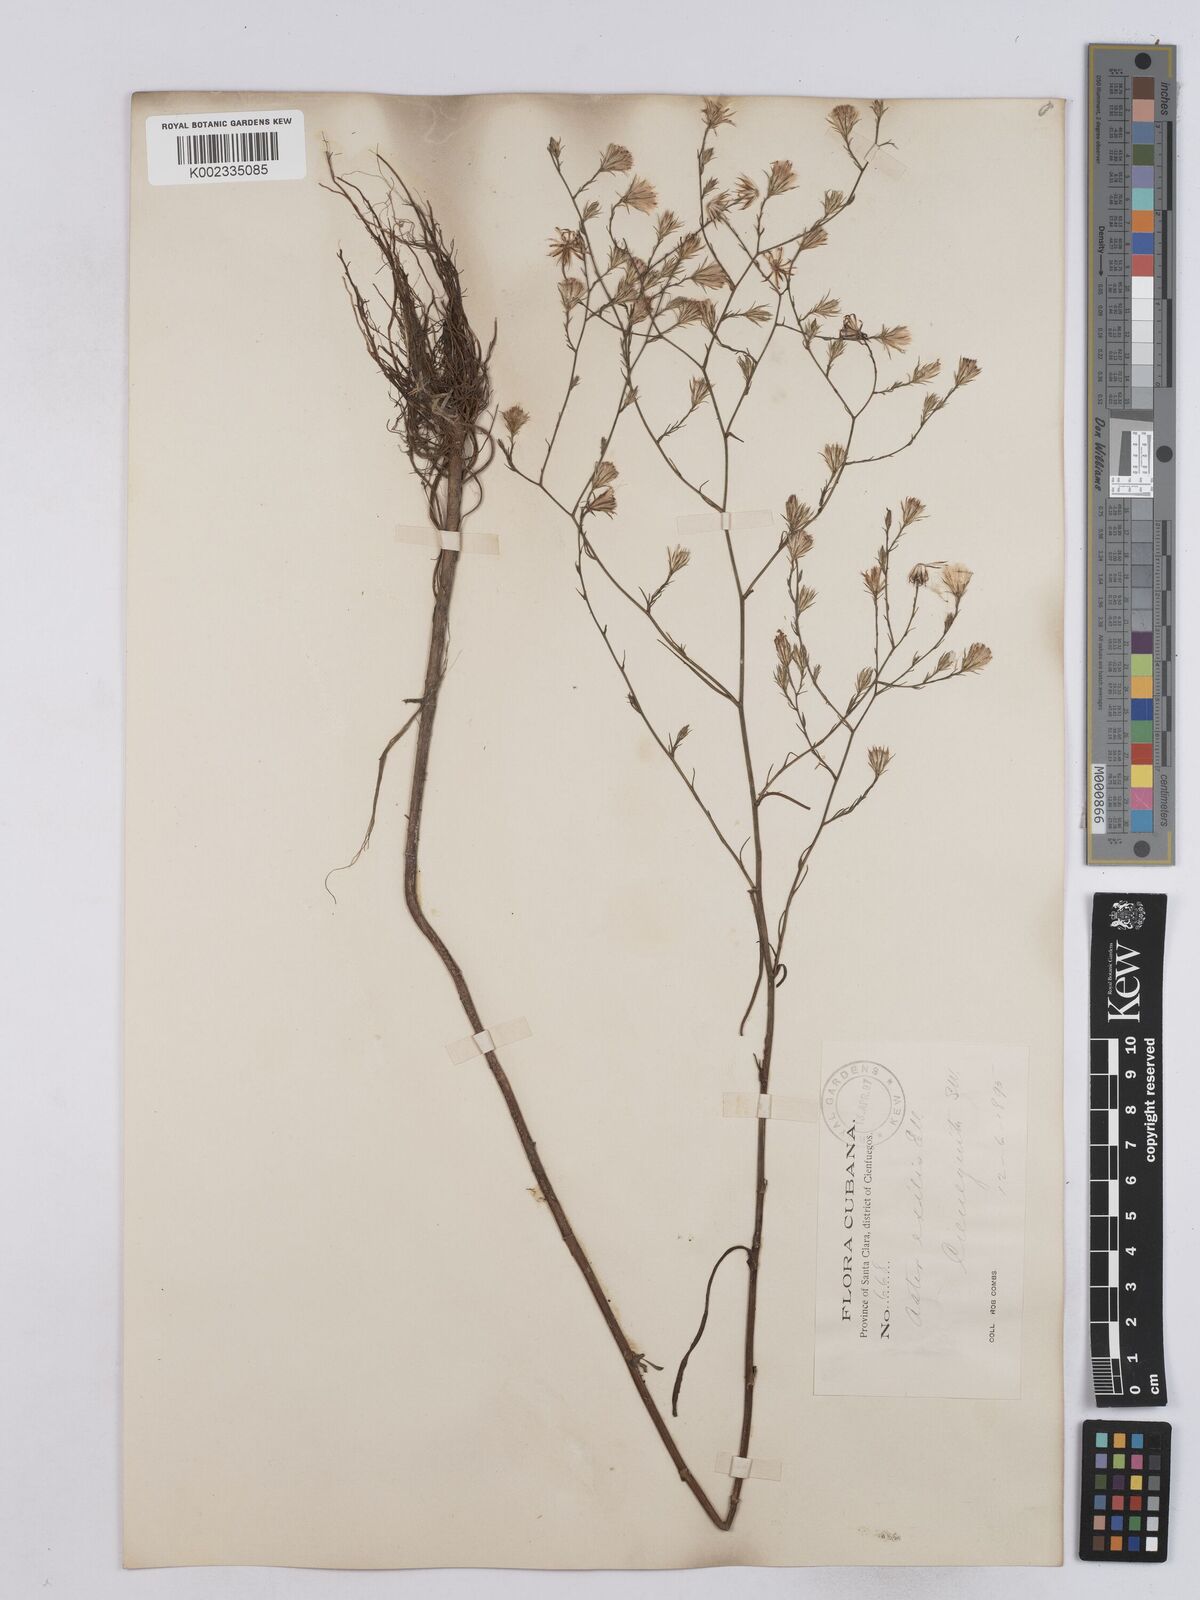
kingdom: Plantae
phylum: Tracheophyta
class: Magnoliopsida
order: Asterales
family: Asteraceae
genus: Symphyotrichum
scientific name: Symphyotrichum expansum
